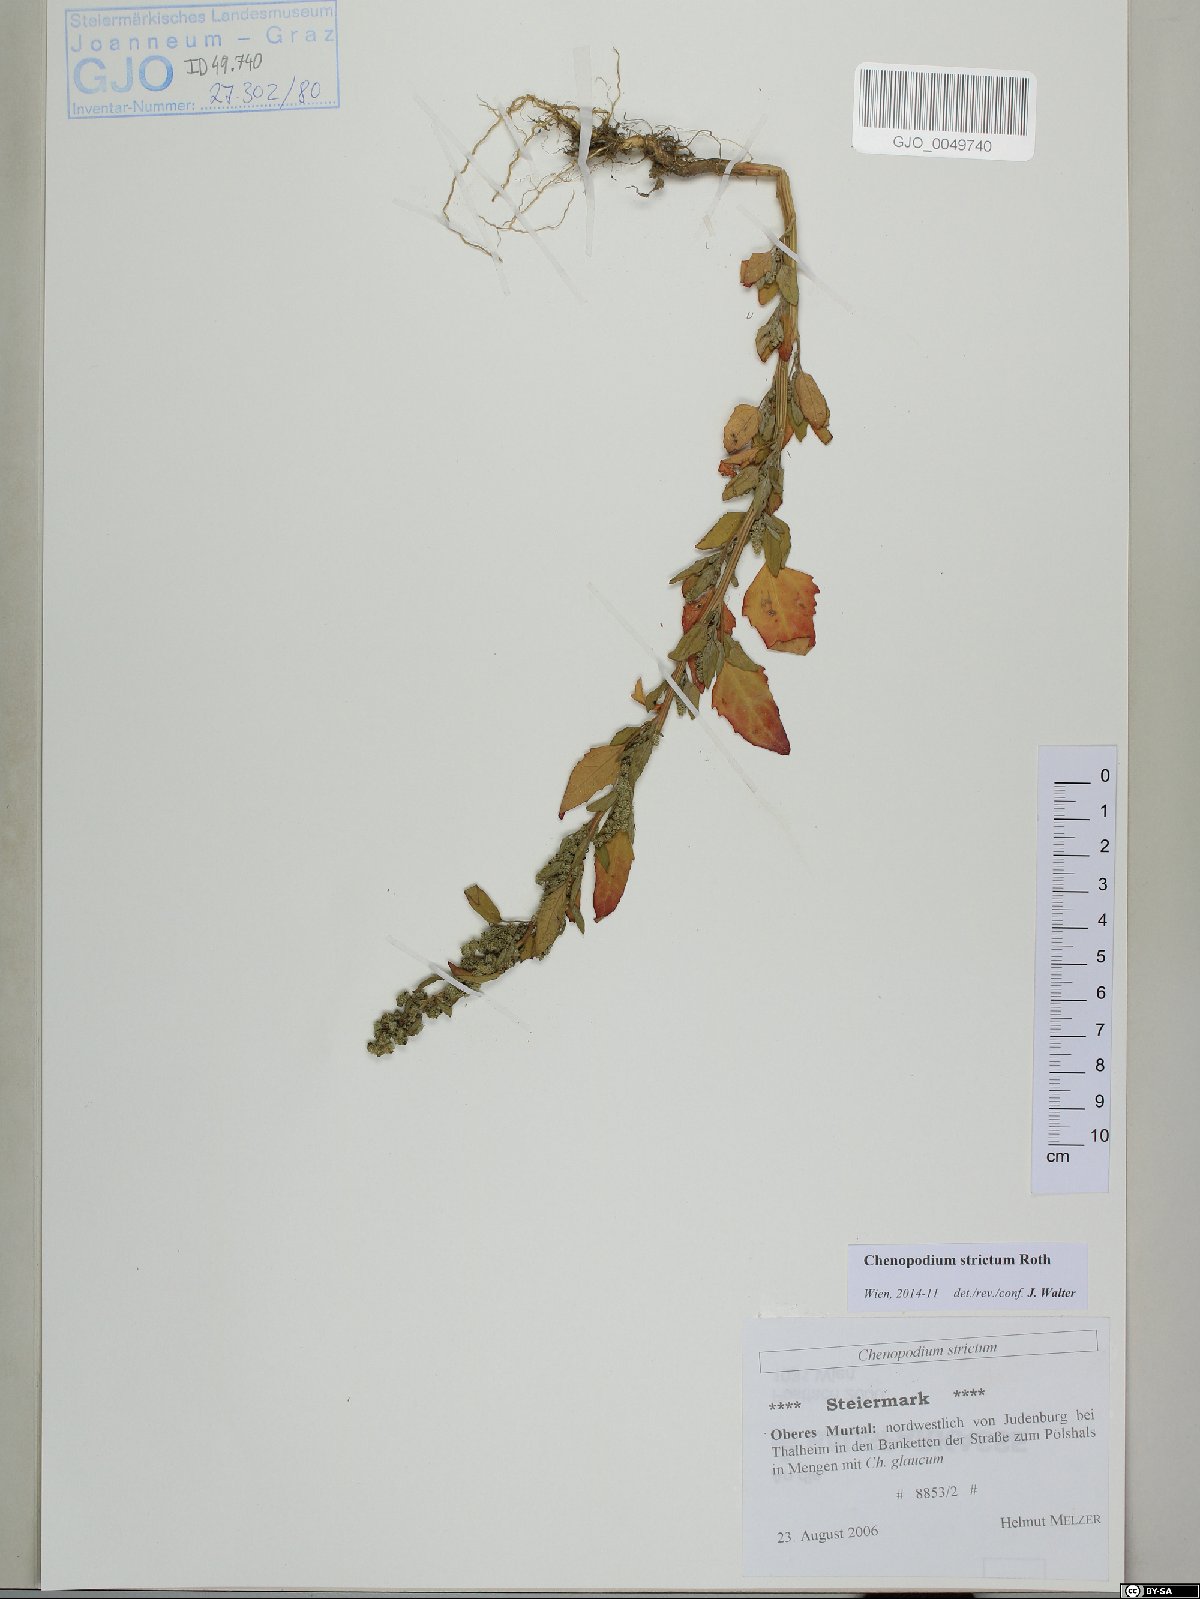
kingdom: Plantae
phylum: Tracheophyta
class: Magnoliopsida
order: Caryophyllales
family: Amaranthaceae
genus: Chenopodium
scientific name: Chenopodium album
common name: Fat-hen
